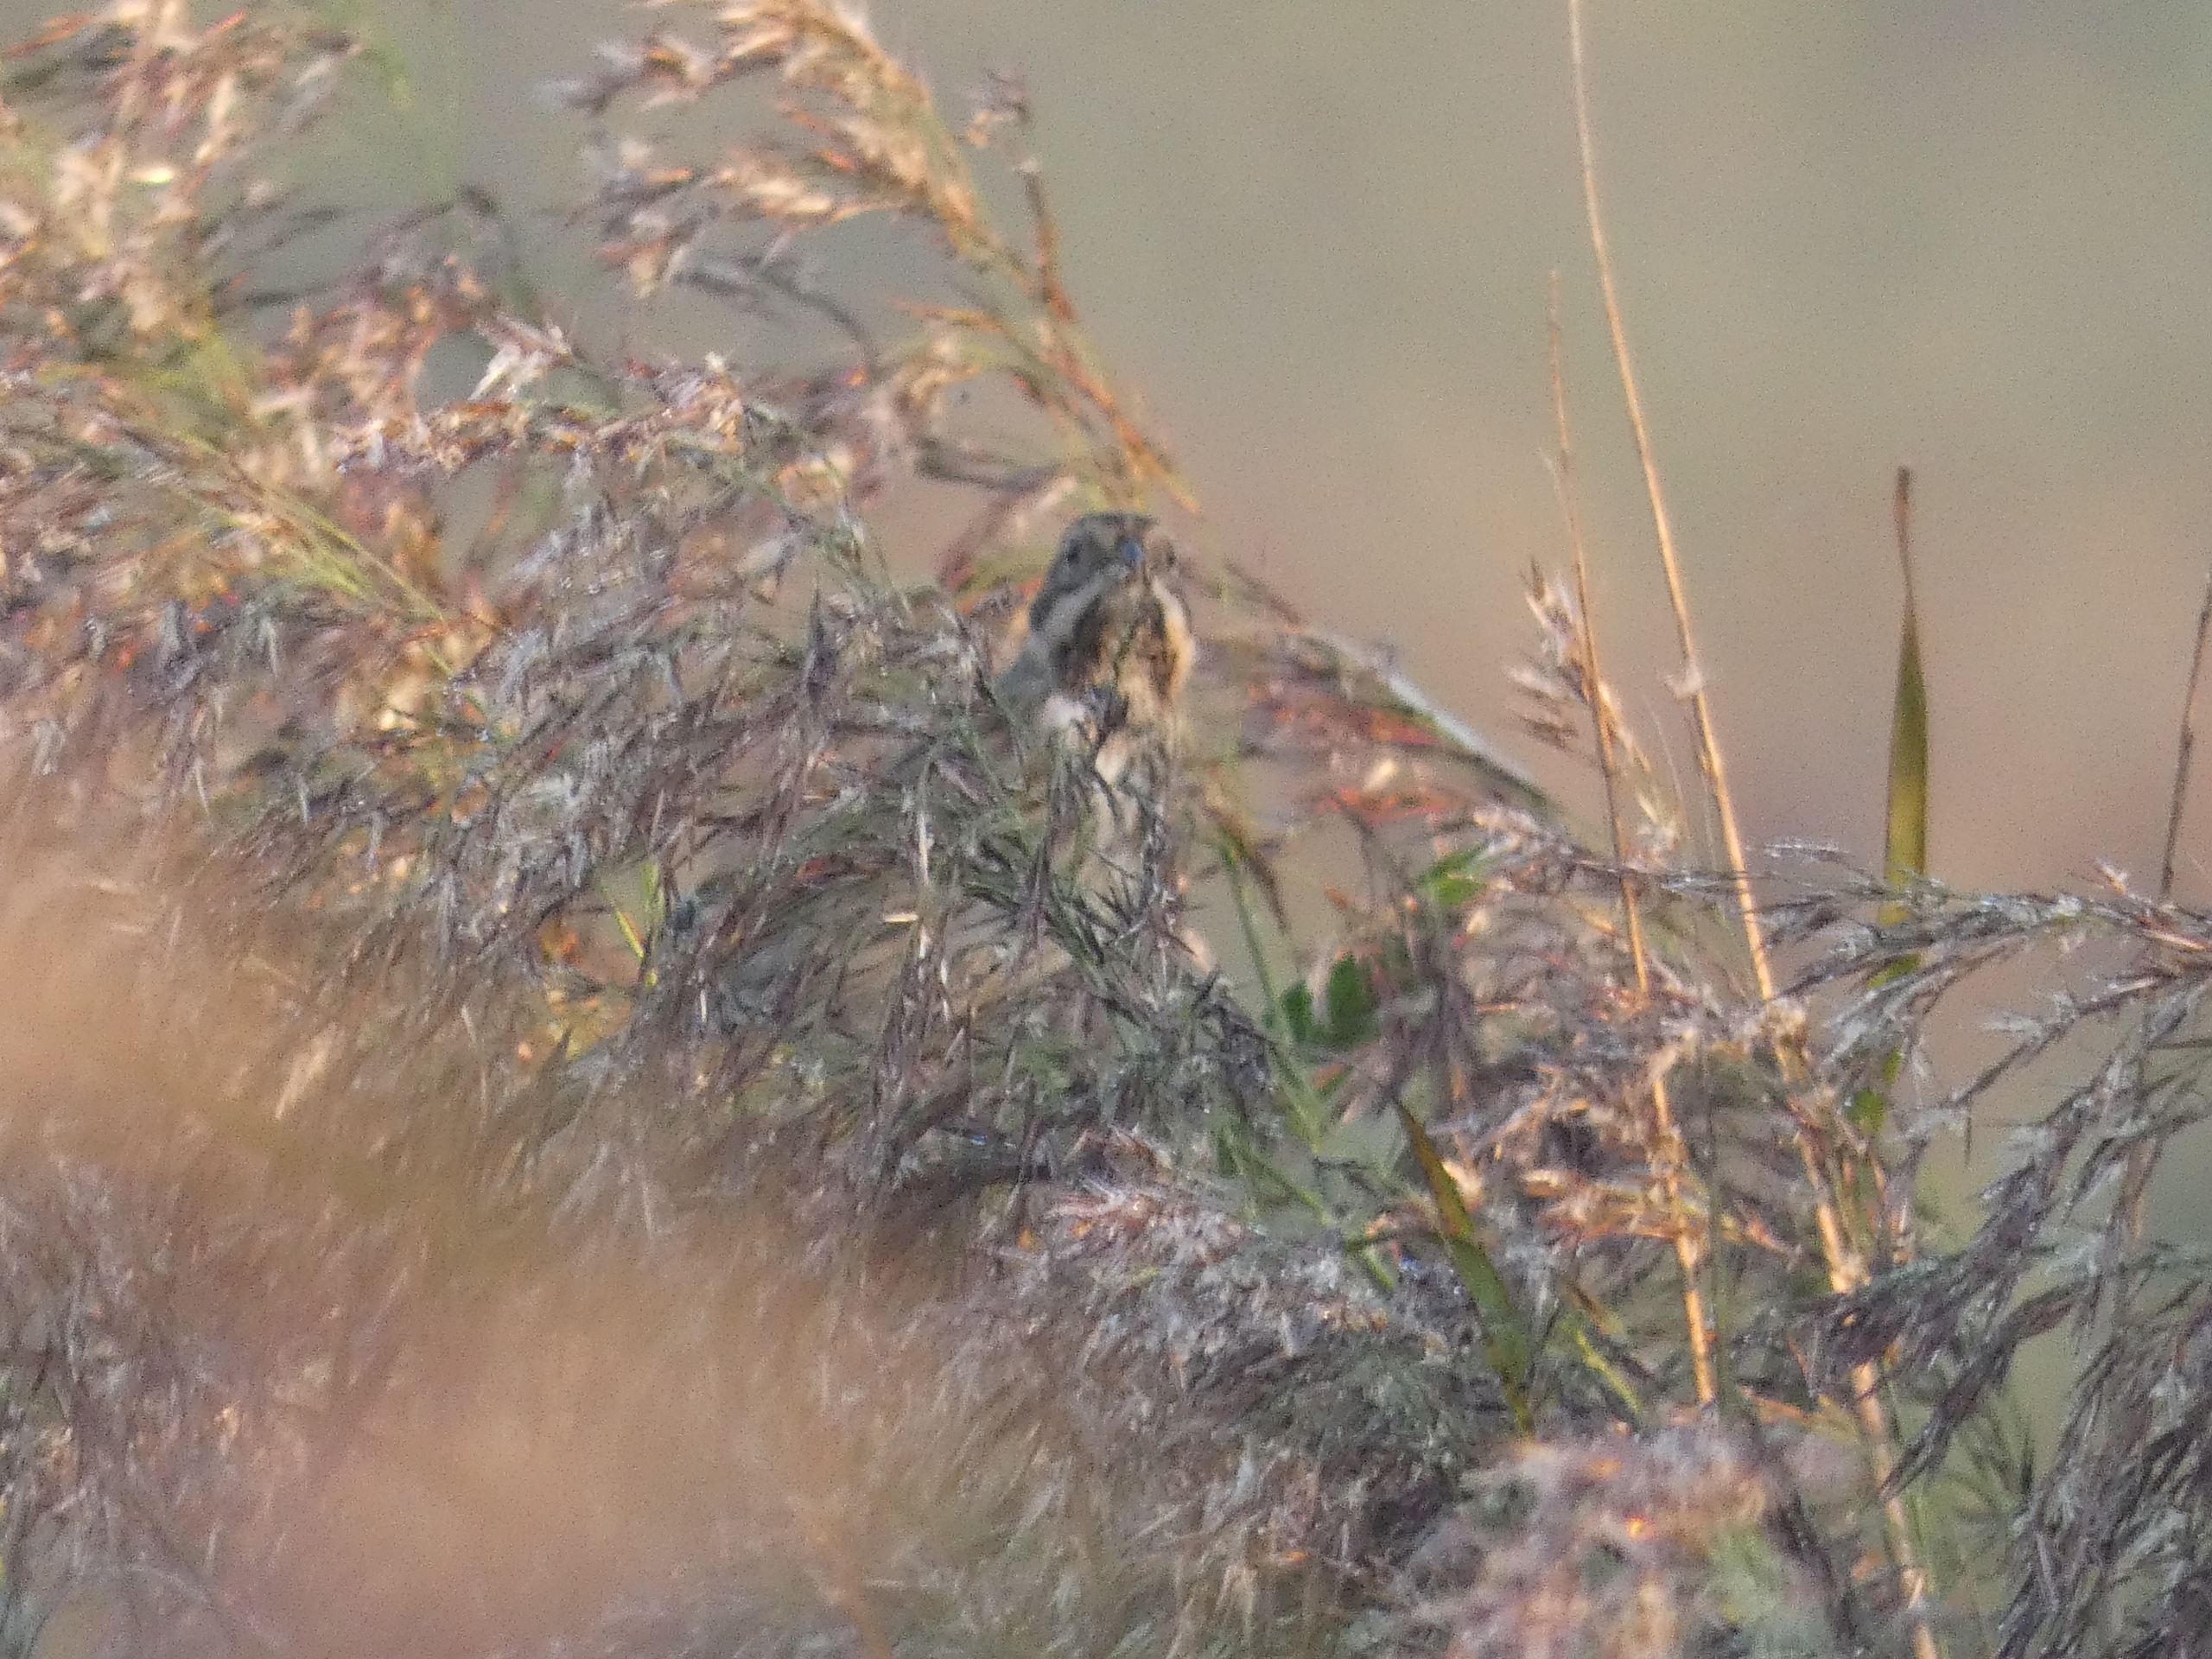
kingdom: Animalia
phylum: Chordata
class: Aves
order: Passeriformes
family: Emberizidae
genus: Emberiza
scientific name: Emberiza schoeniclus
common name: Rørspurv
